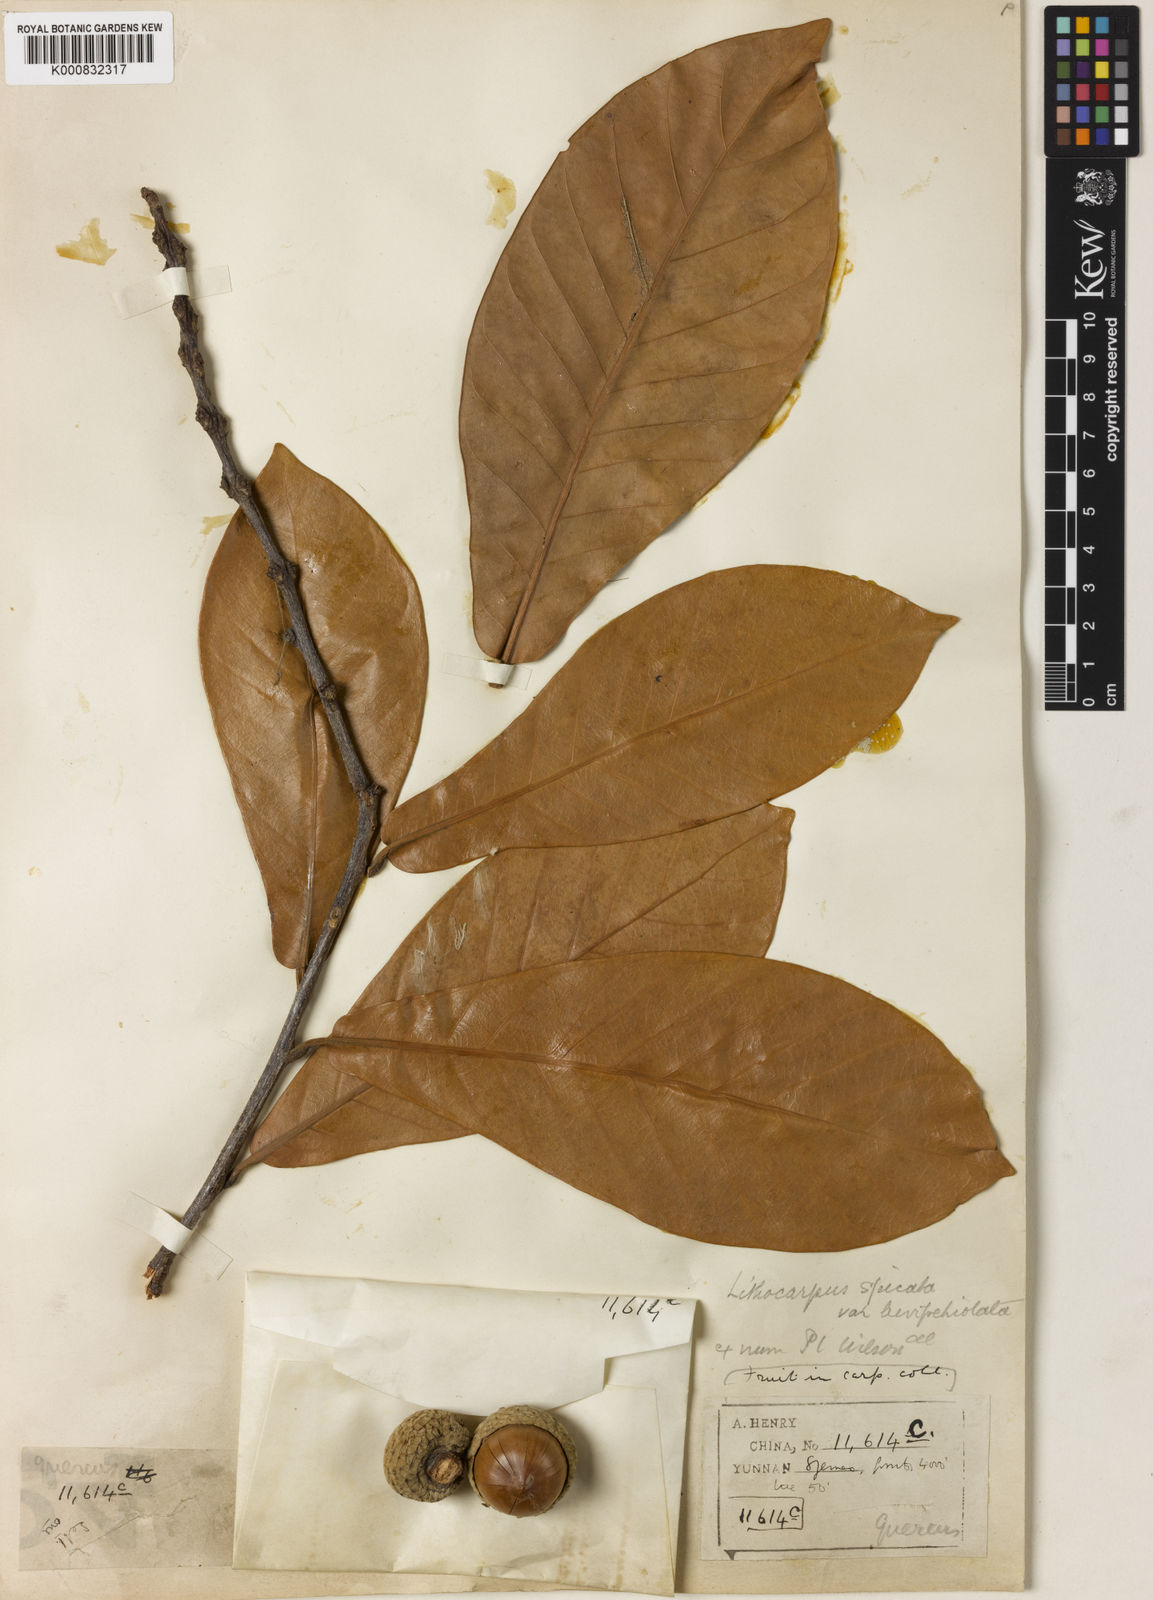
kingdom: Plantae
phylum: Tracheophyta
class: Magnoliopsida
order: Fagales
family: Fagaceae
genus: Lithocarpus
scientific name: Lithocarpus elegans
